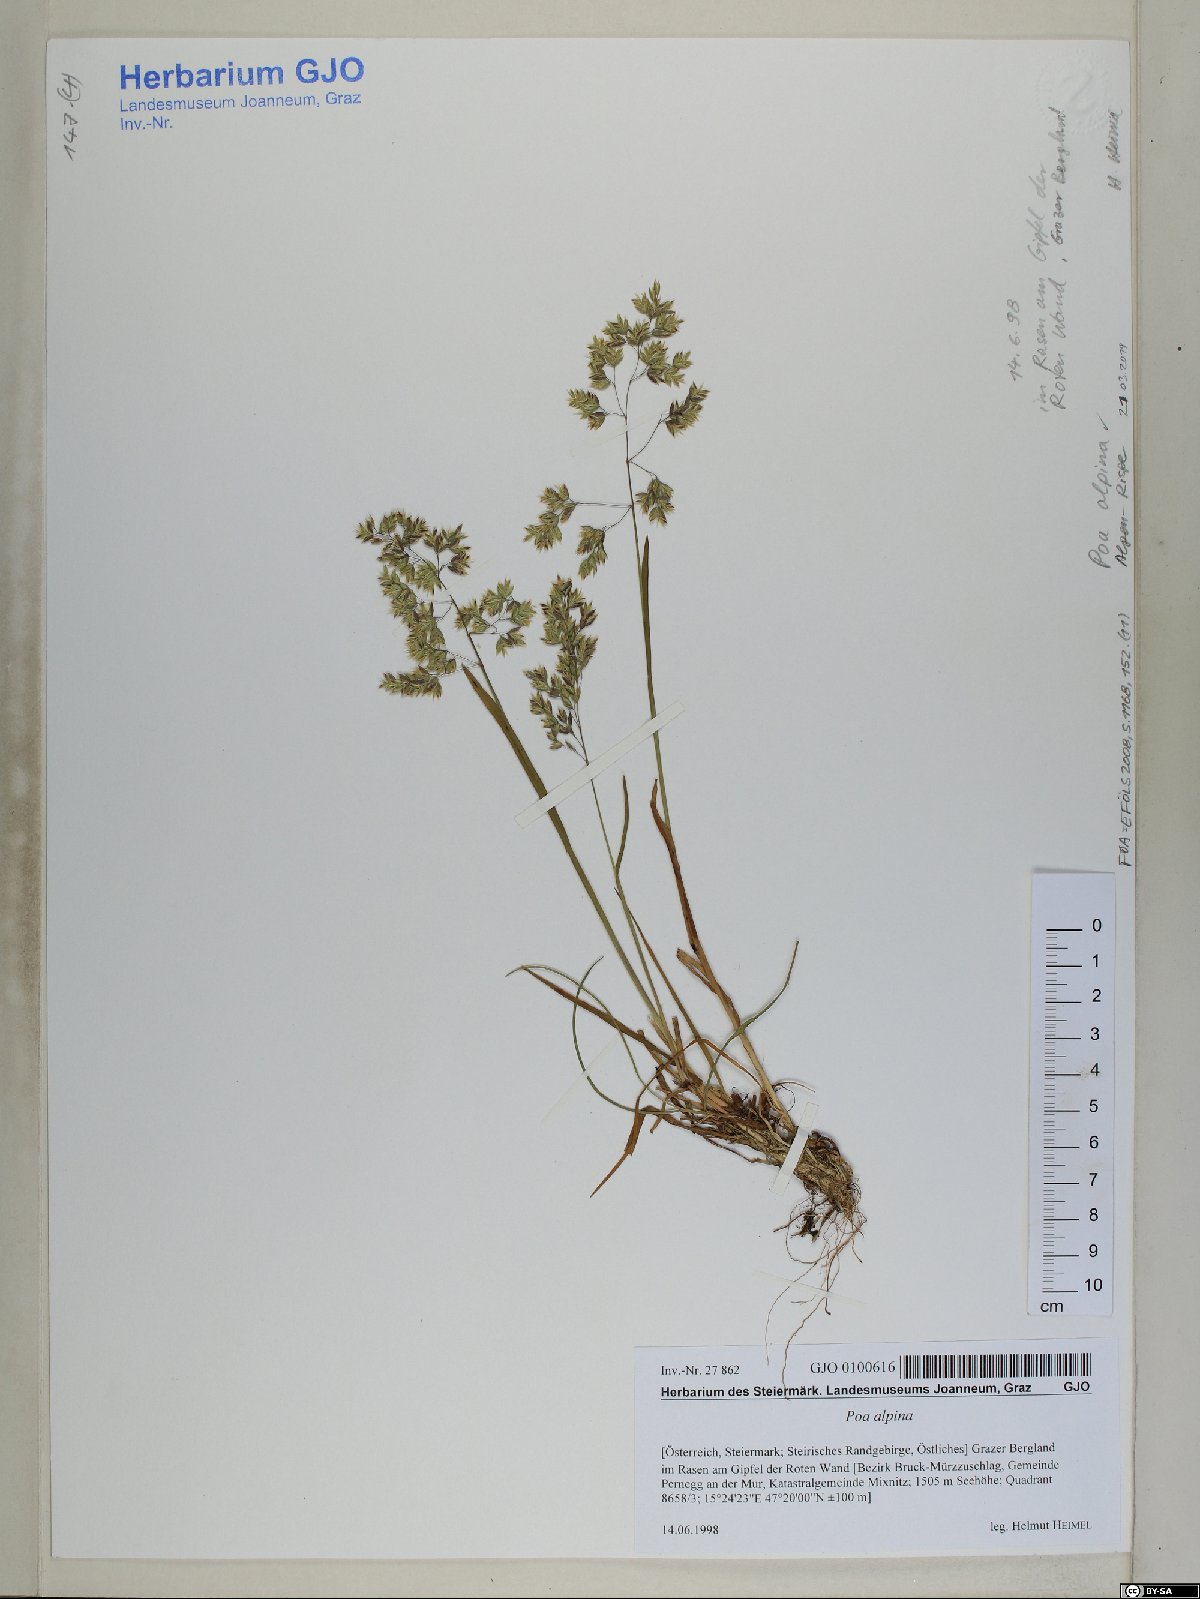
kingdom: Plantae
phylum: Tracheophyta
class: Liliopsida
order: Poales
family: Poaceae
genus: Poa
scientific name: Poa alpina
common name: Alpine bluegrass
